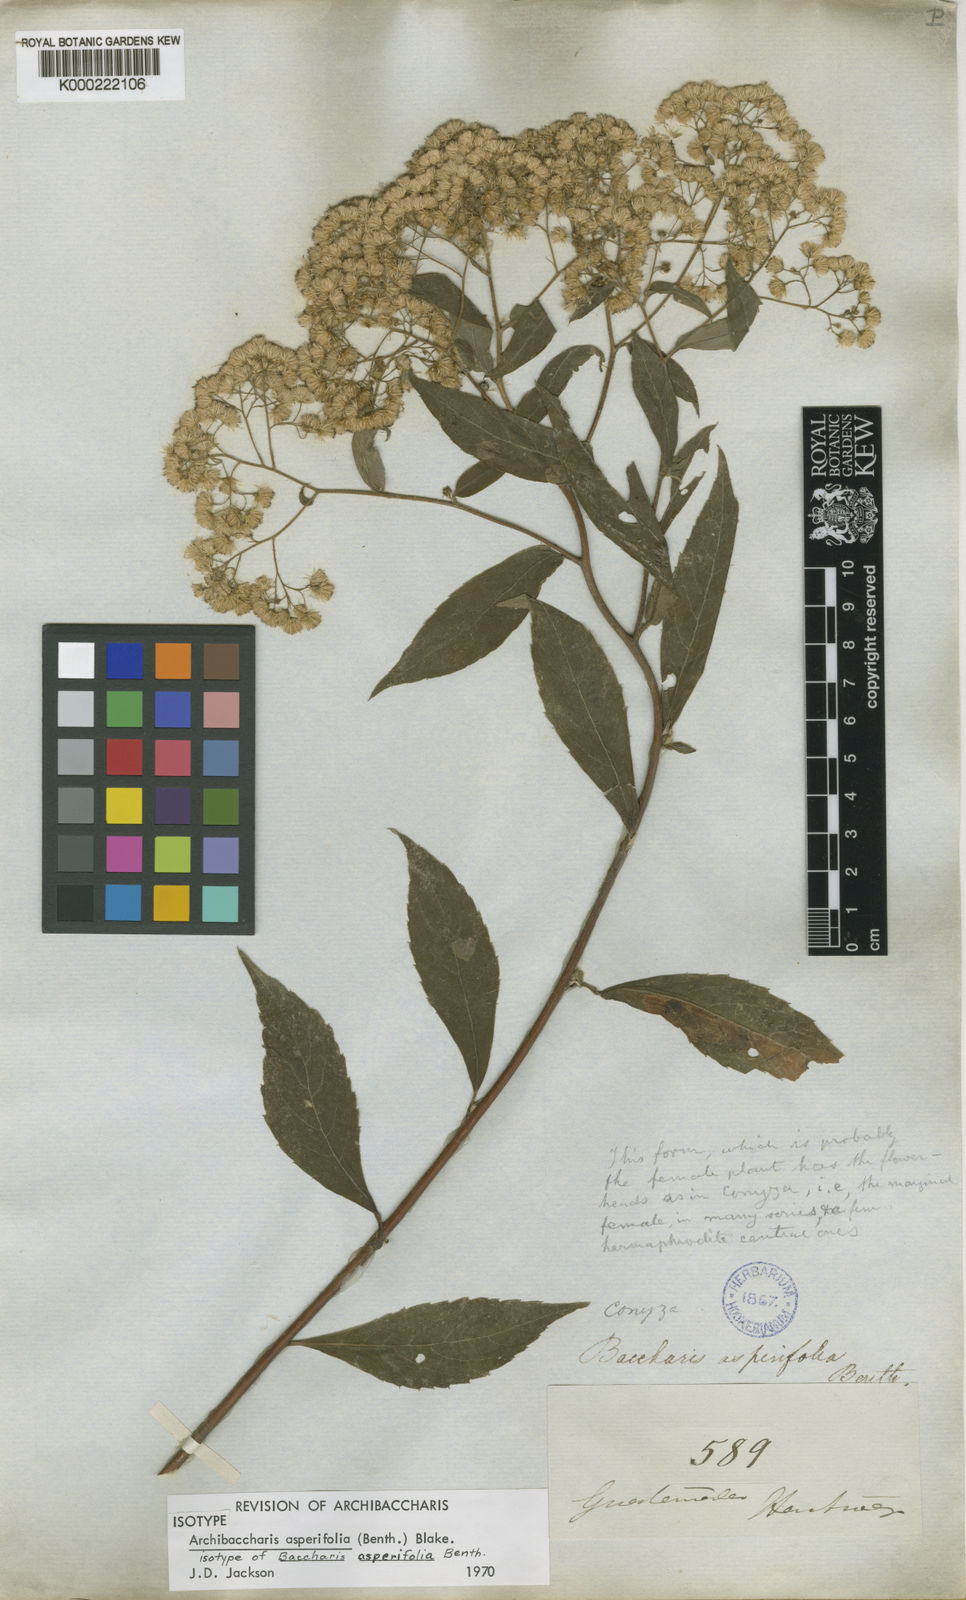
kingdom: Plantae
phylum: Tracheophyta
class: Magnoliopsida
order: Asterales
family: Asteraceae
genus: Archibaccharis
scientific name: Archibaccharis asperifolia
